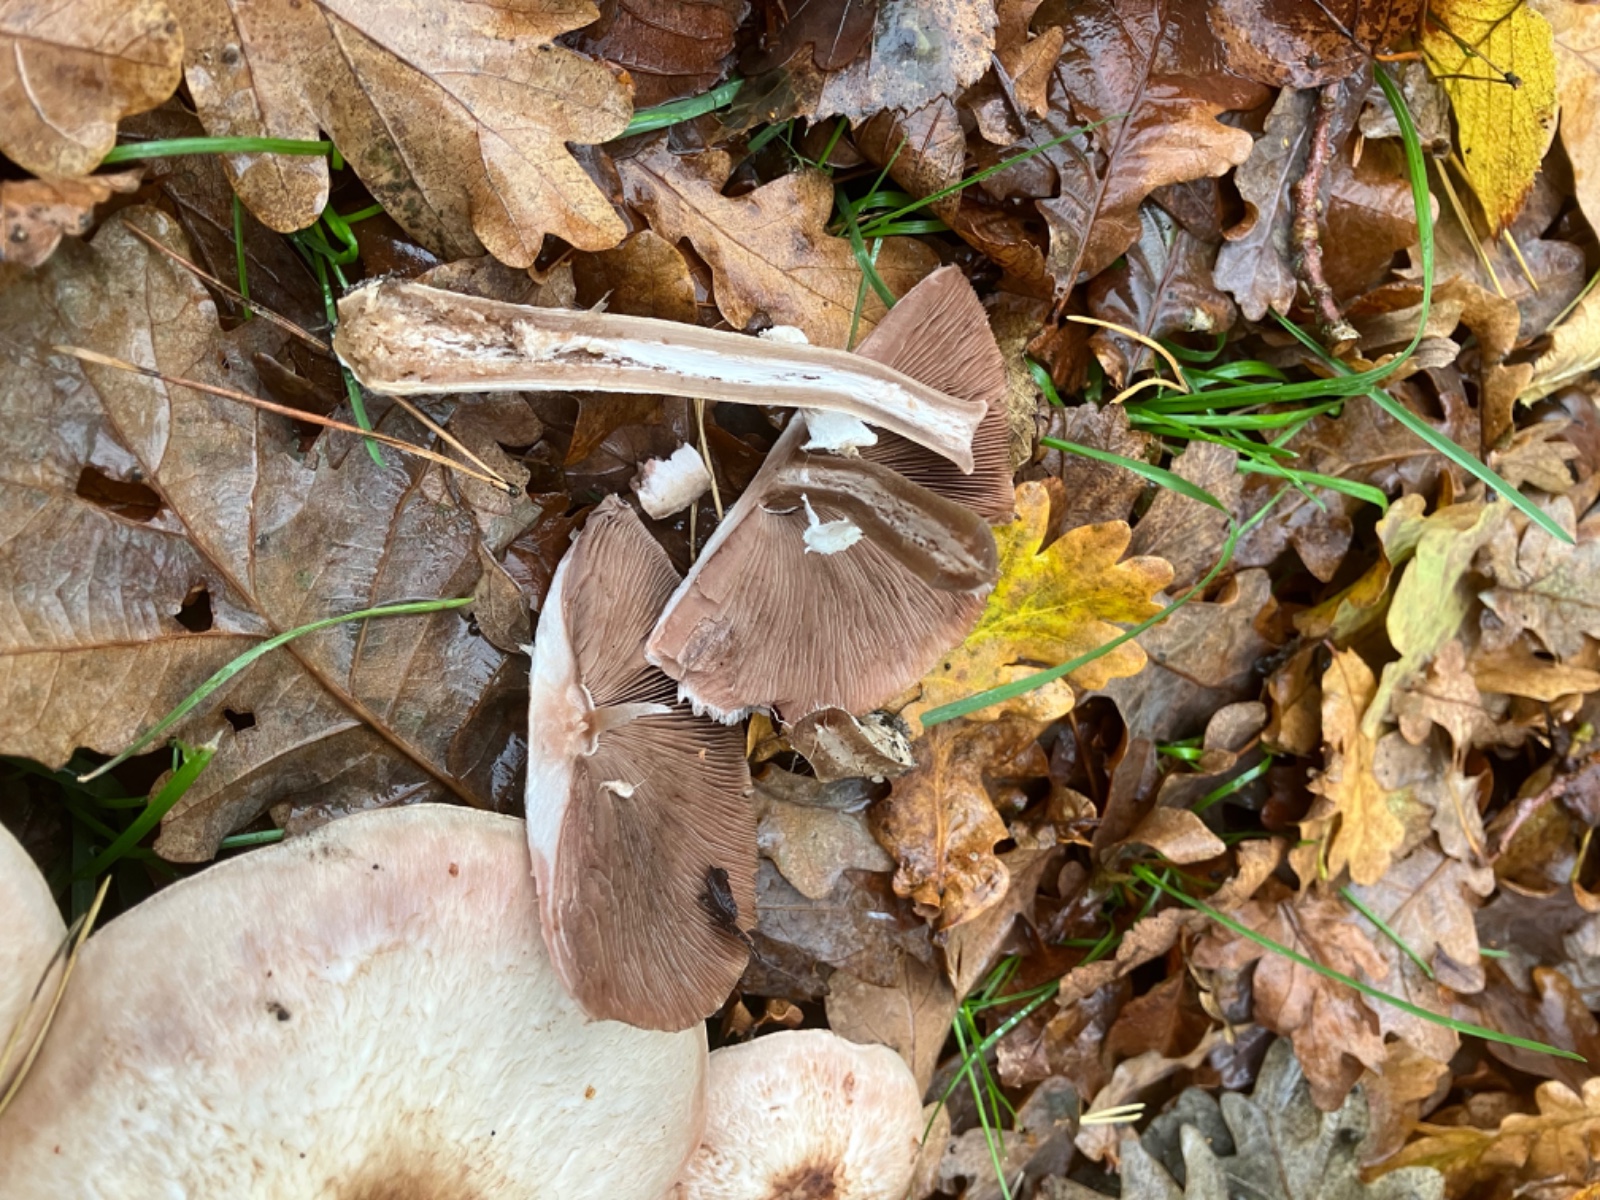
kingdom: Fungi
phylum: Basidiomycota
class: Agaricomycetes
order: Agaricales
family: Agaricaceae
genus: Agaricus
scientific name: Agaricus impudicus
